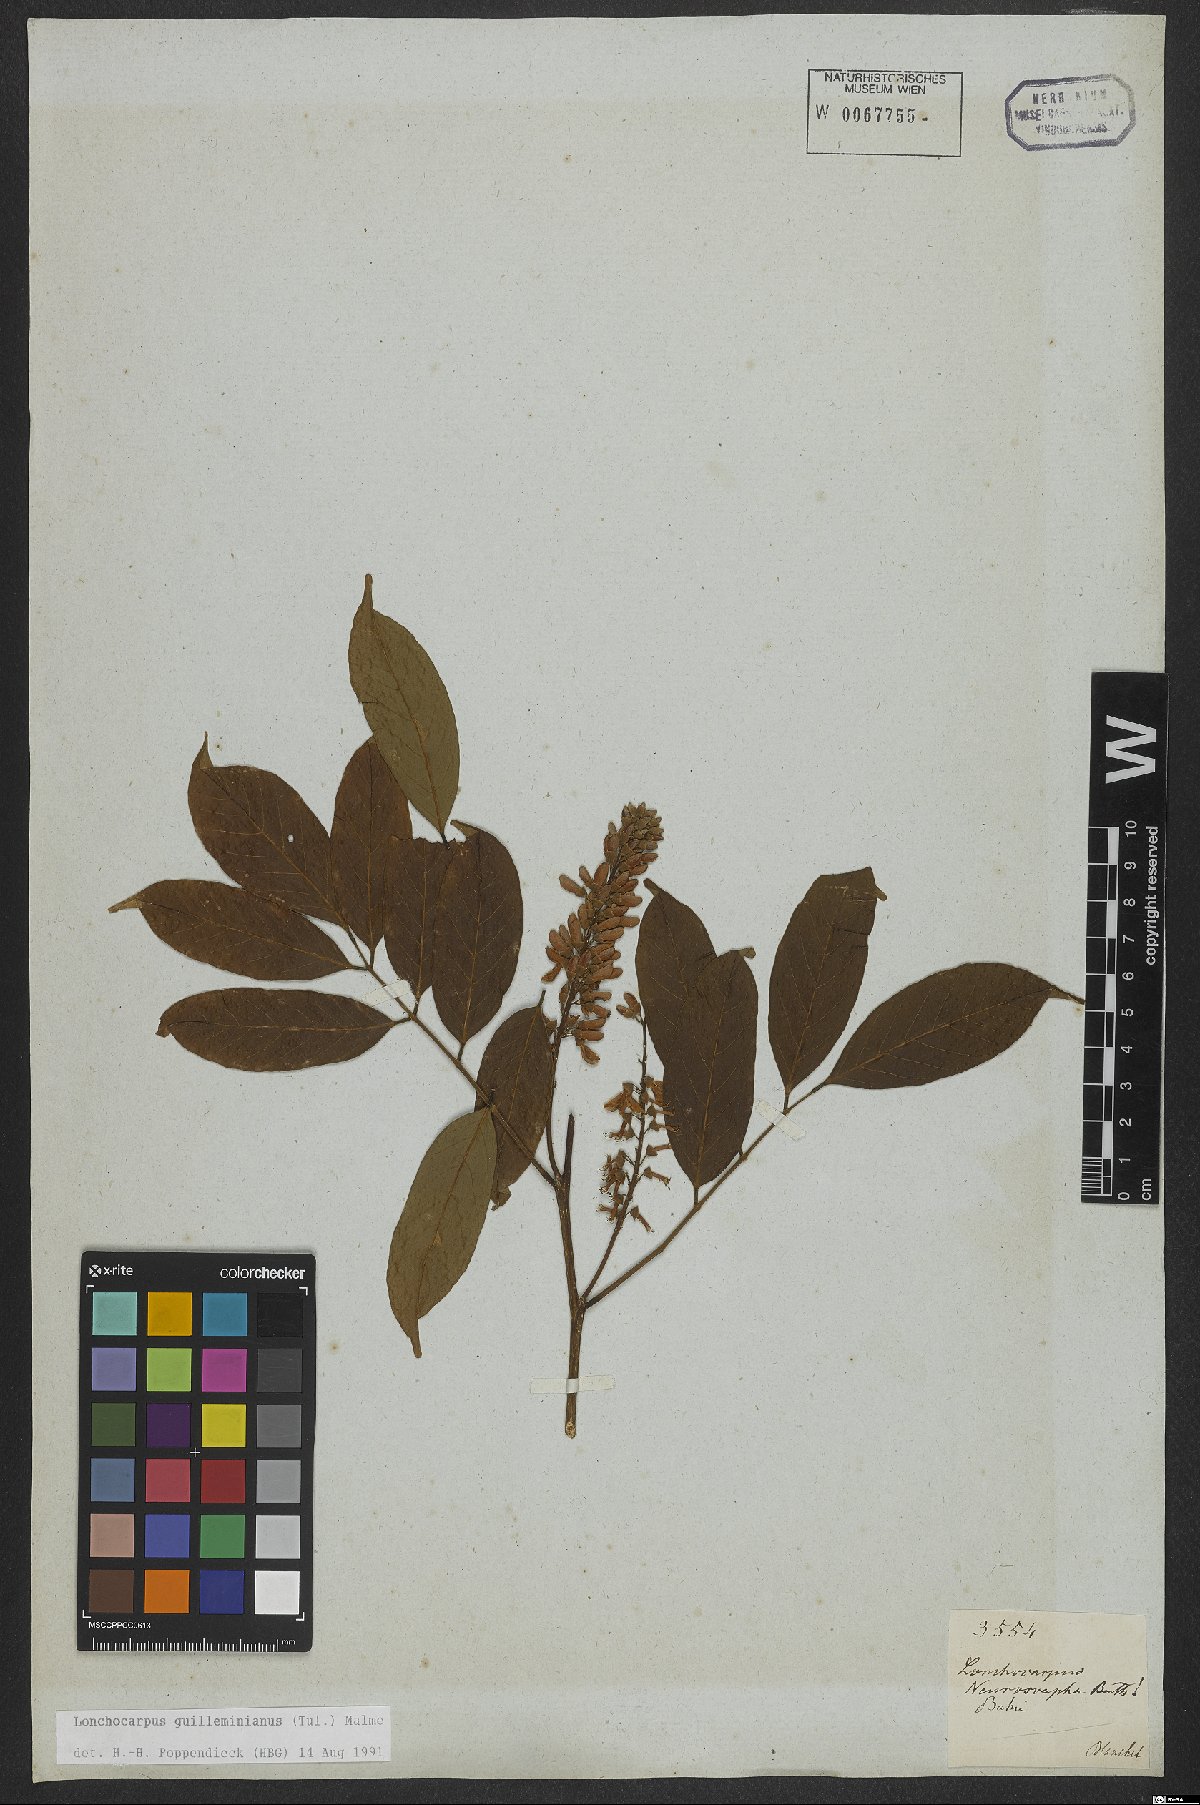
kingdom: Plantae
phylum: Tracheophyta
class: Magnoliopsida
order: Fabales
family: Fabaceae
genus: Lonchocarpus
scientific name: Lonchocarpus cultratus
